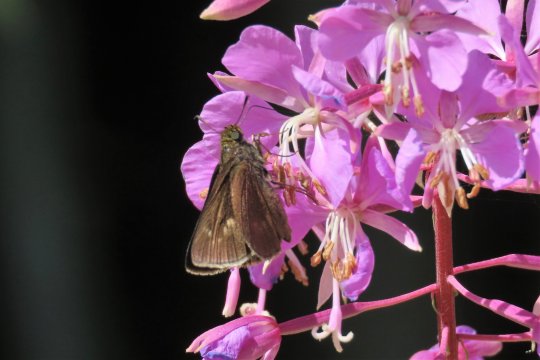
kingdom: Animalia
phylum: Arthropoda
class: Insecta
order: Lepidoptera
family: Hesperiidae
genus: Polites
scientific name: Polites egeremet
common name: Northern Broken-Dash
